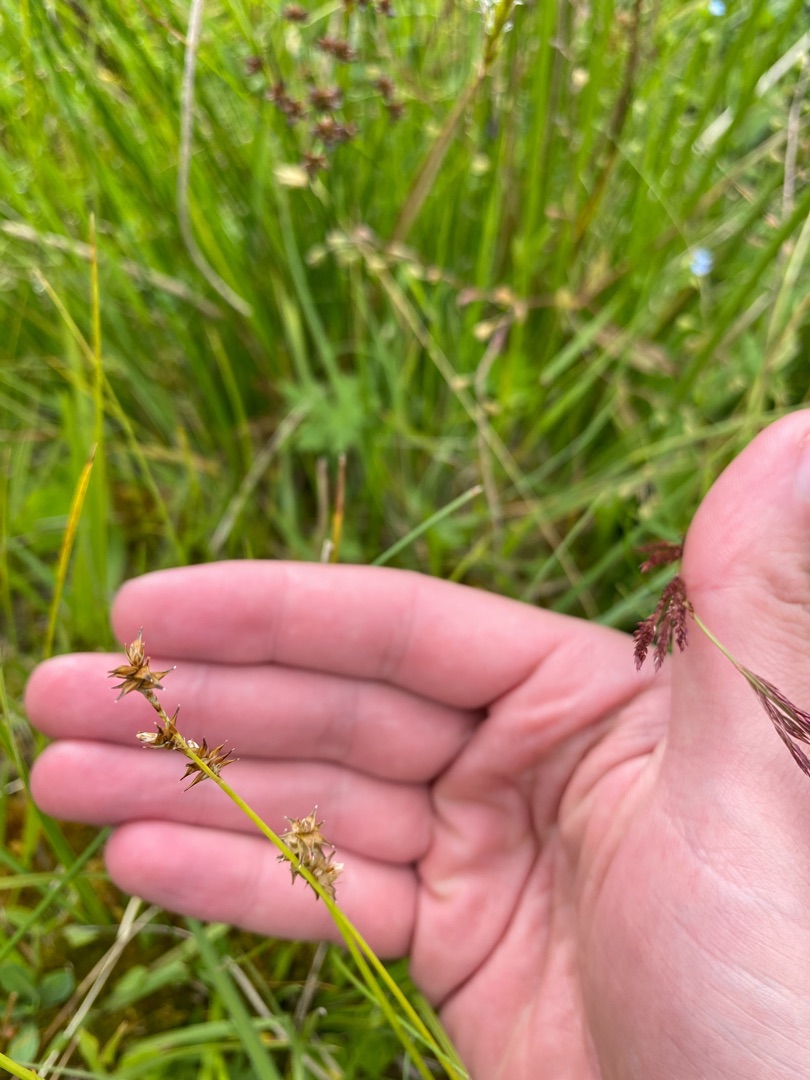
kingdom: Plantae
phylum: Tracheophyta
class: Liliopsida
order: Poales
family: Cyperaceae
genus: Carex
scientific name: Carex echinata
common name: Stjerne-star
